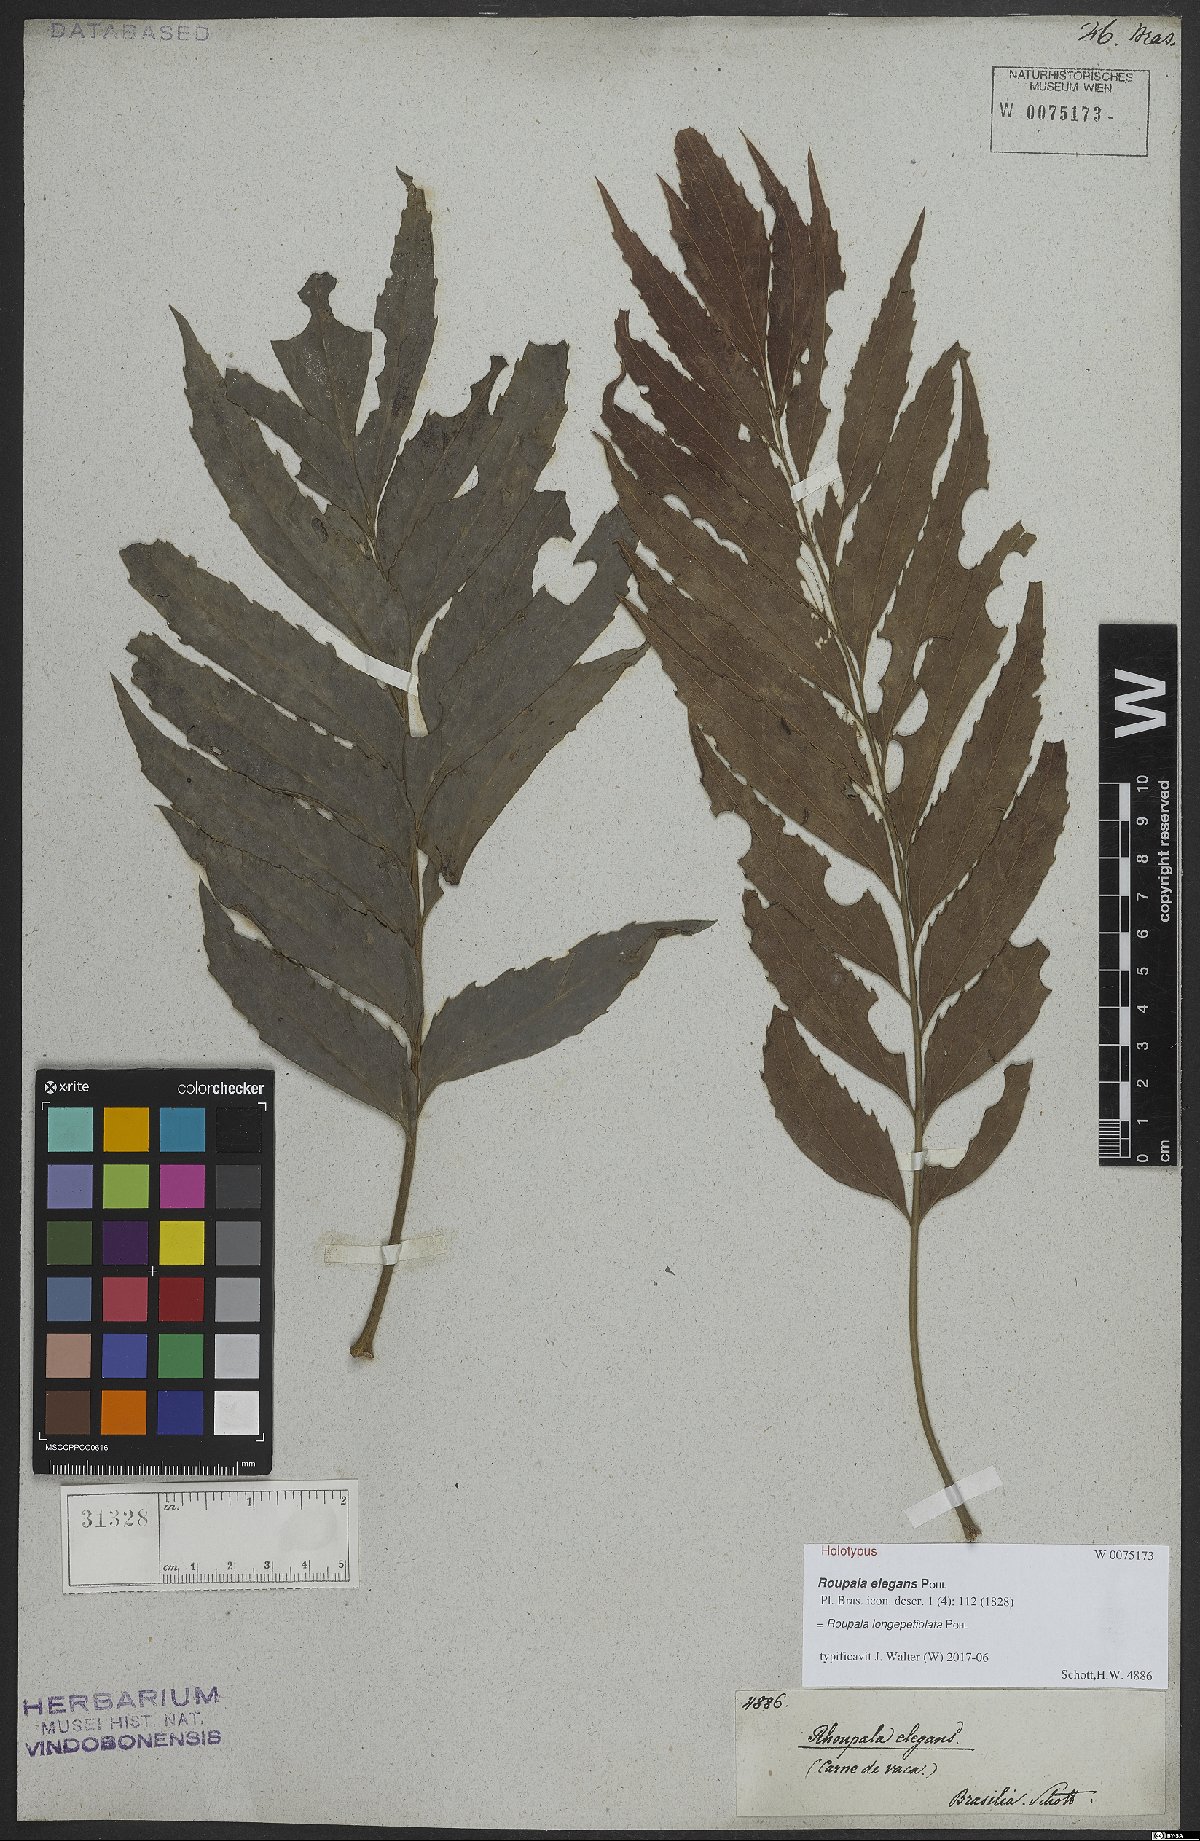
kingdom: Plantae
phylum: Tracheophyta
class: Magnoliopsida
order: Proteales
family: Proteaceae
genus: Roupala
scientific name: Roupala longepetiolata
